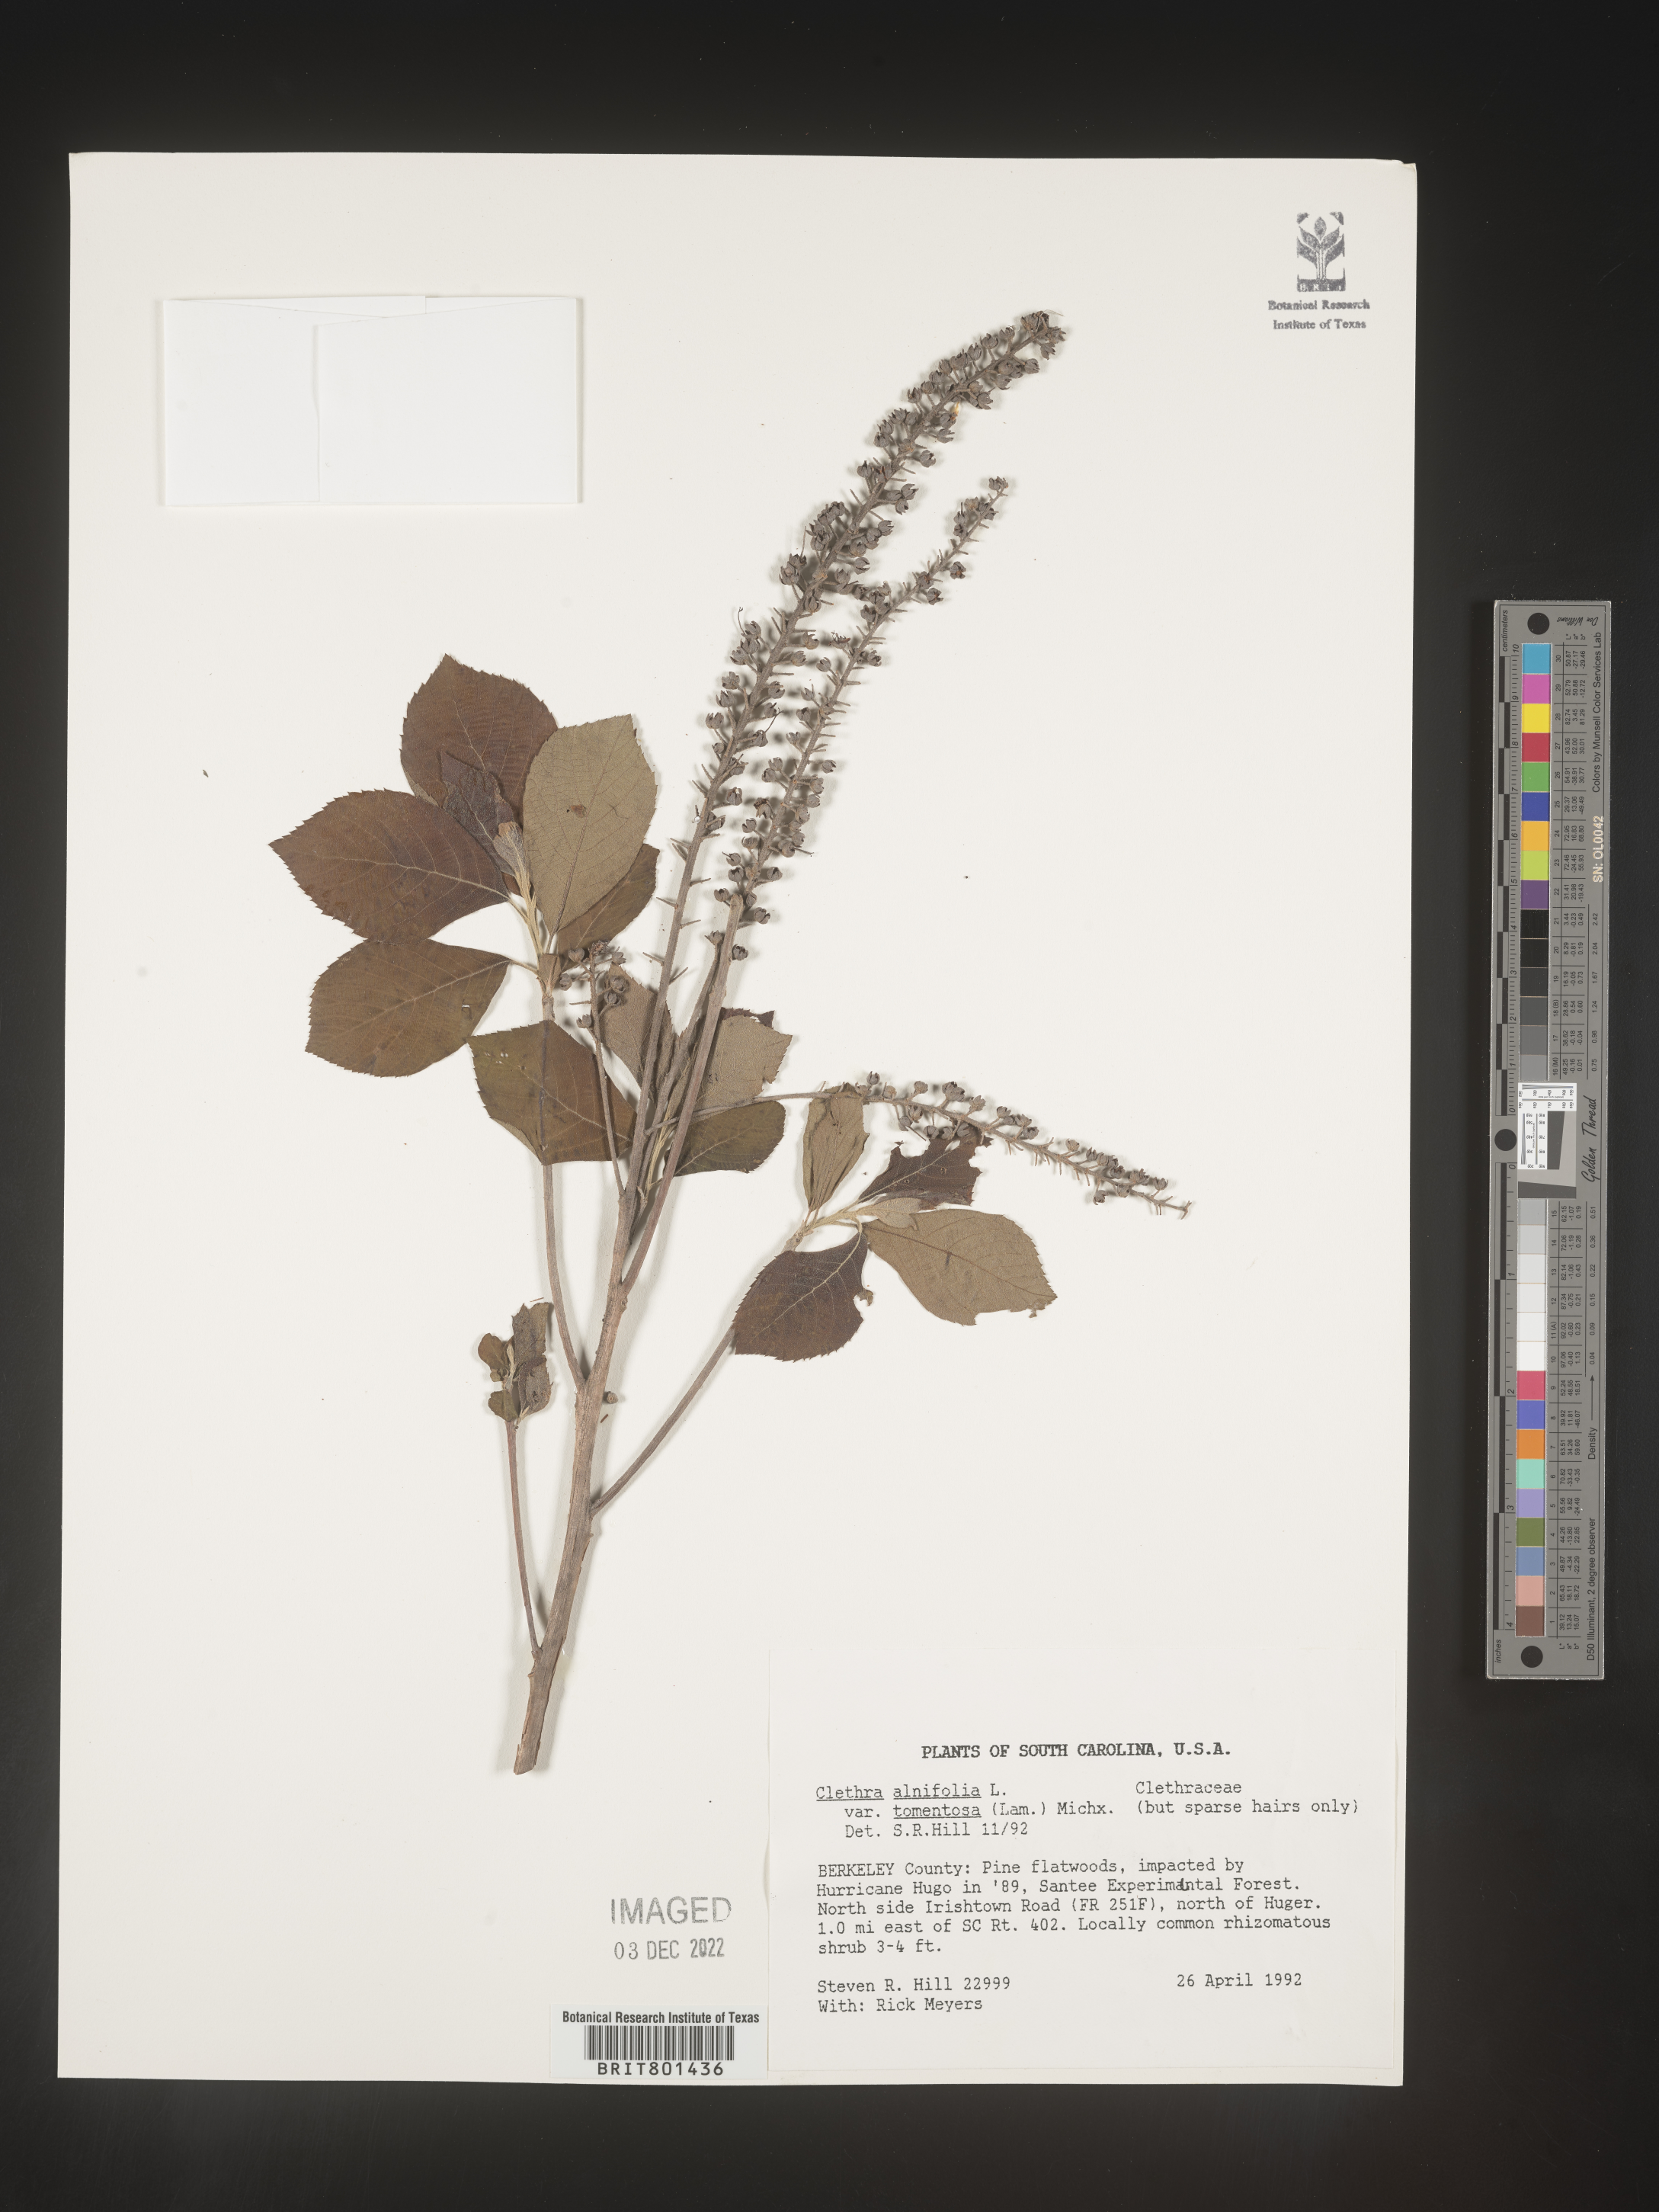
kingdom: Plantae
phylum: Tracheophyta
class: Magnoliopsida
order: Ericales
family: Clethraceae
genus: Clethra
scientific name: Clethra alnifolia
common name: Sweet pepperbush
